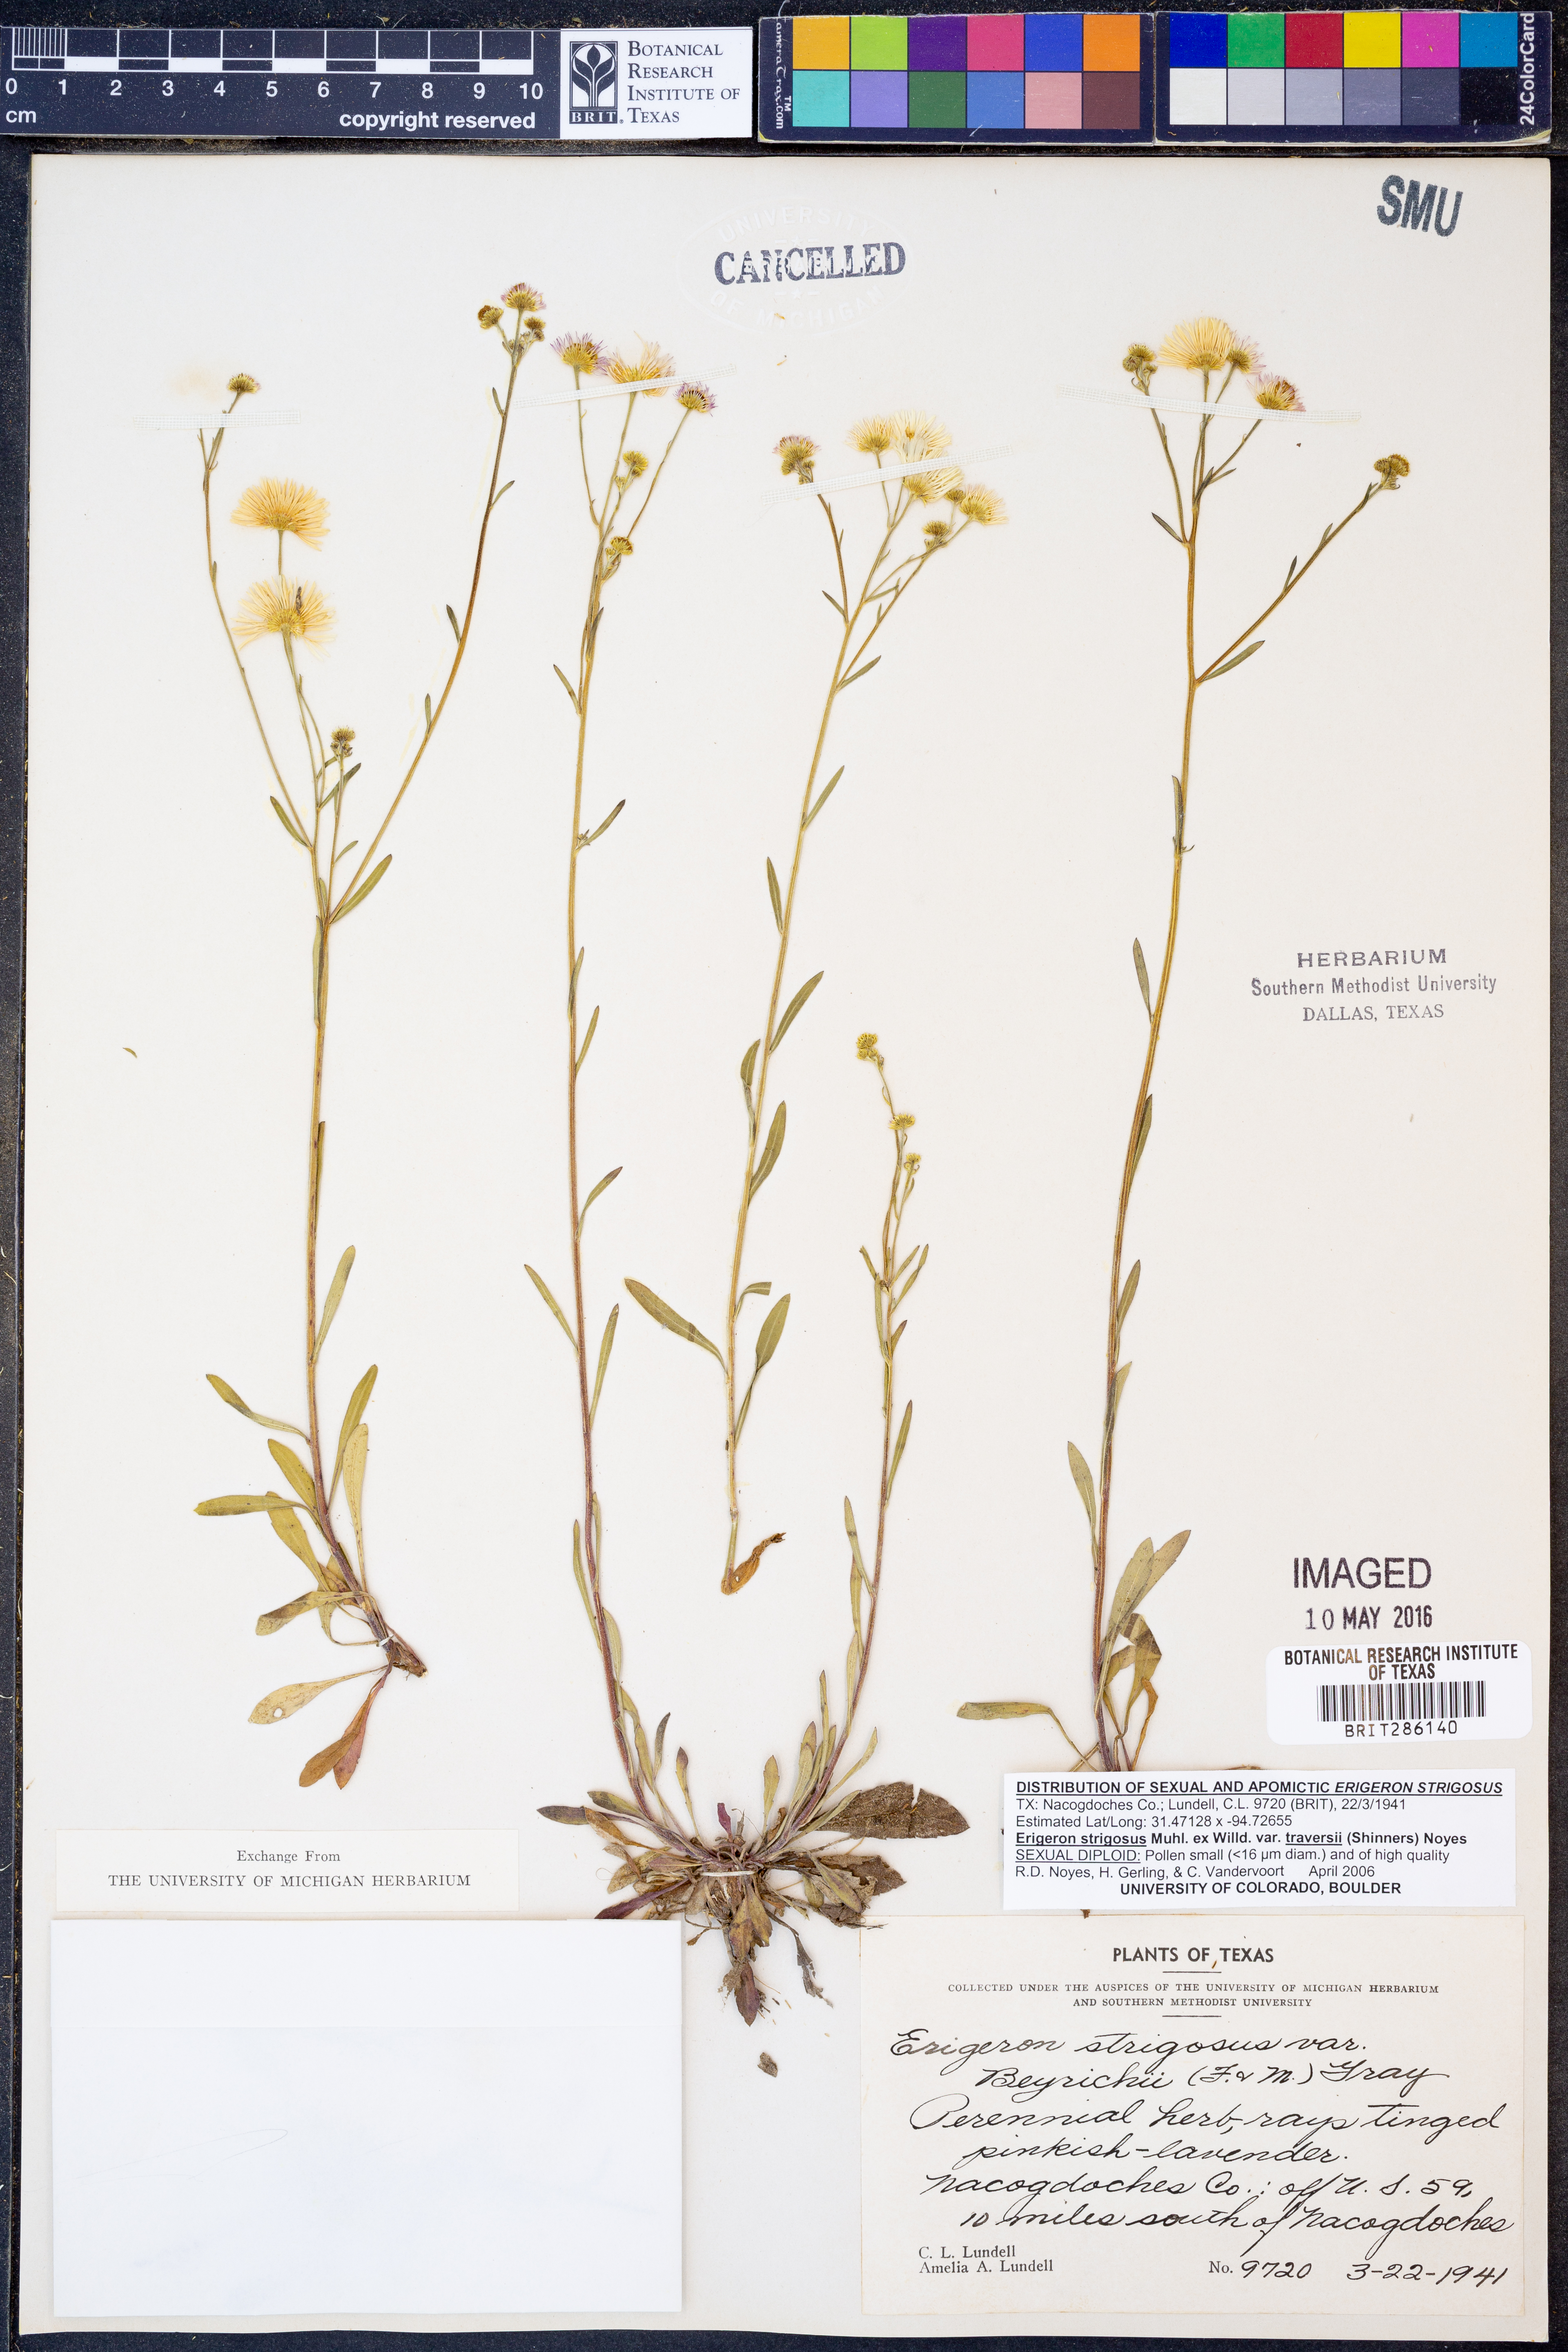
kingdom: Plantae
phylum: Tracheophyta
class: Magnoliopsida
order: Asterales
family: Asteraceae
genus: Erigeron
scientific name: Erigeron strigosus
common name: Common eastern fleabane
